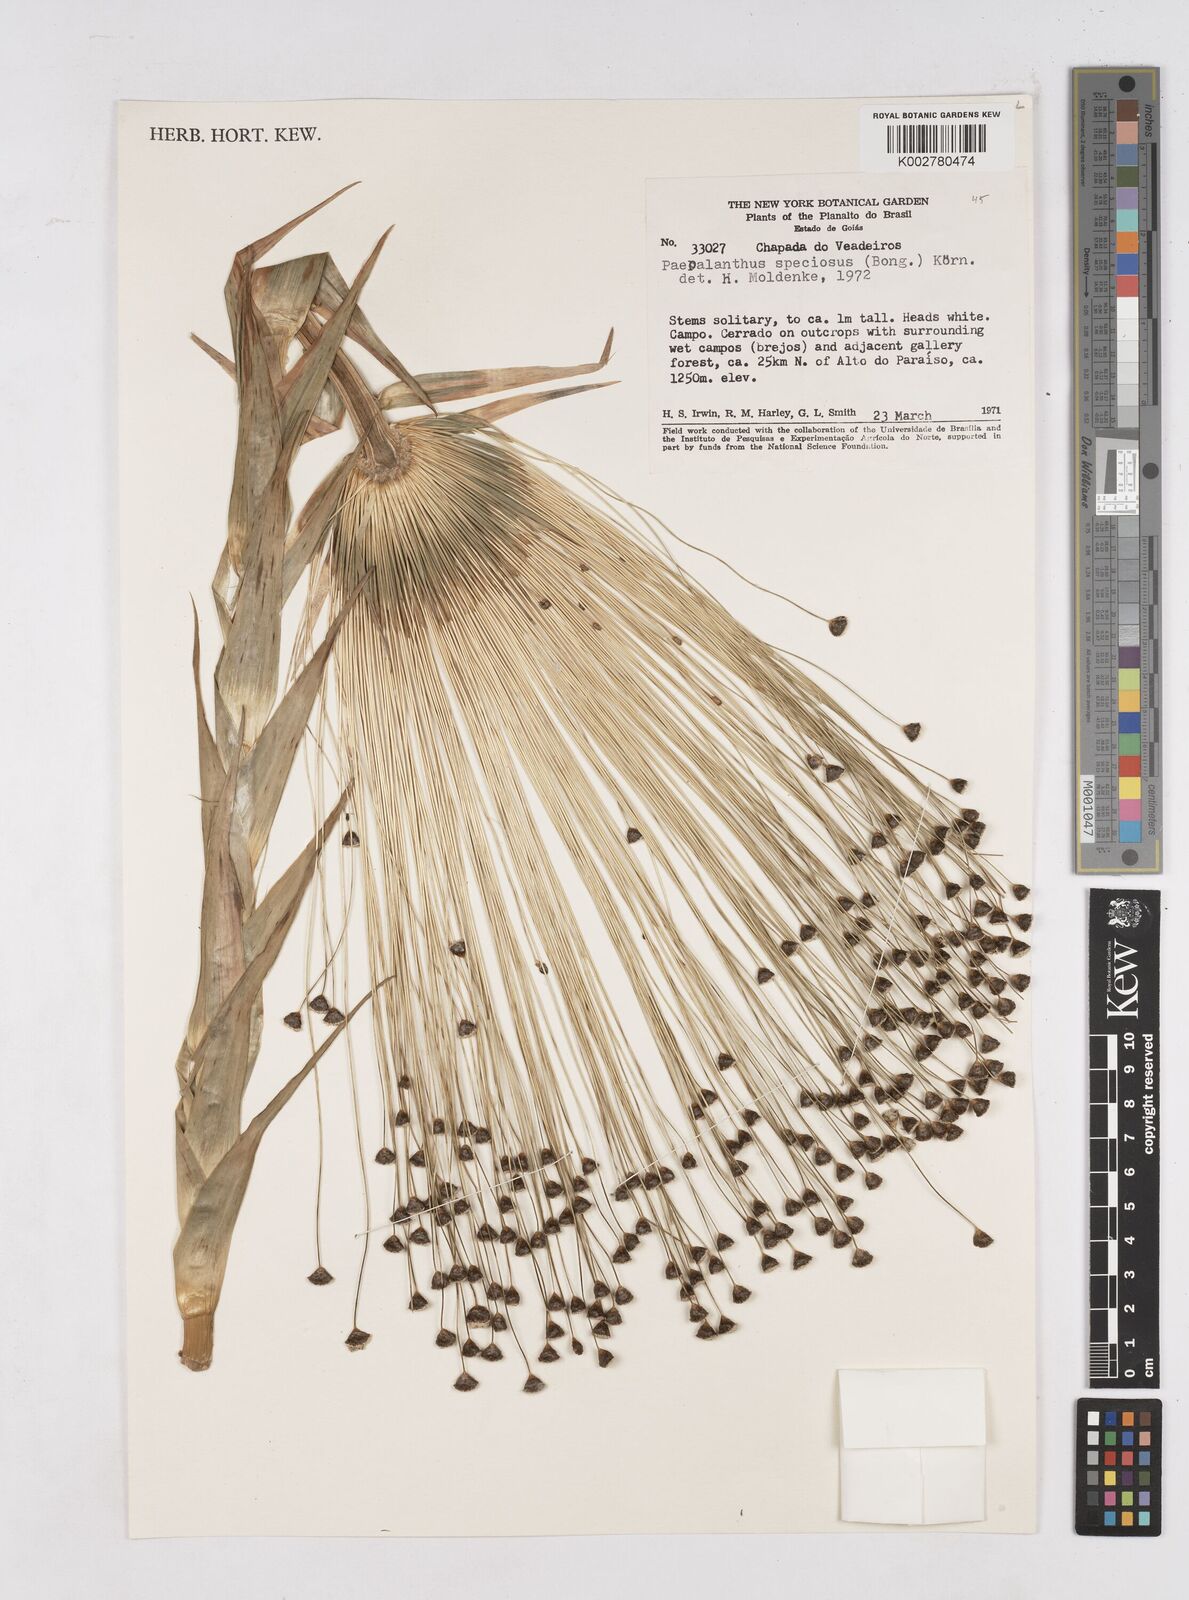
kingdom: Plantae
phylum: Tracheophyta
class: Liliopsida
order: Poales
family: Eriocaulaceae
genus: Paepalanthus
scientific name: Paepalanthus chiquitensis
